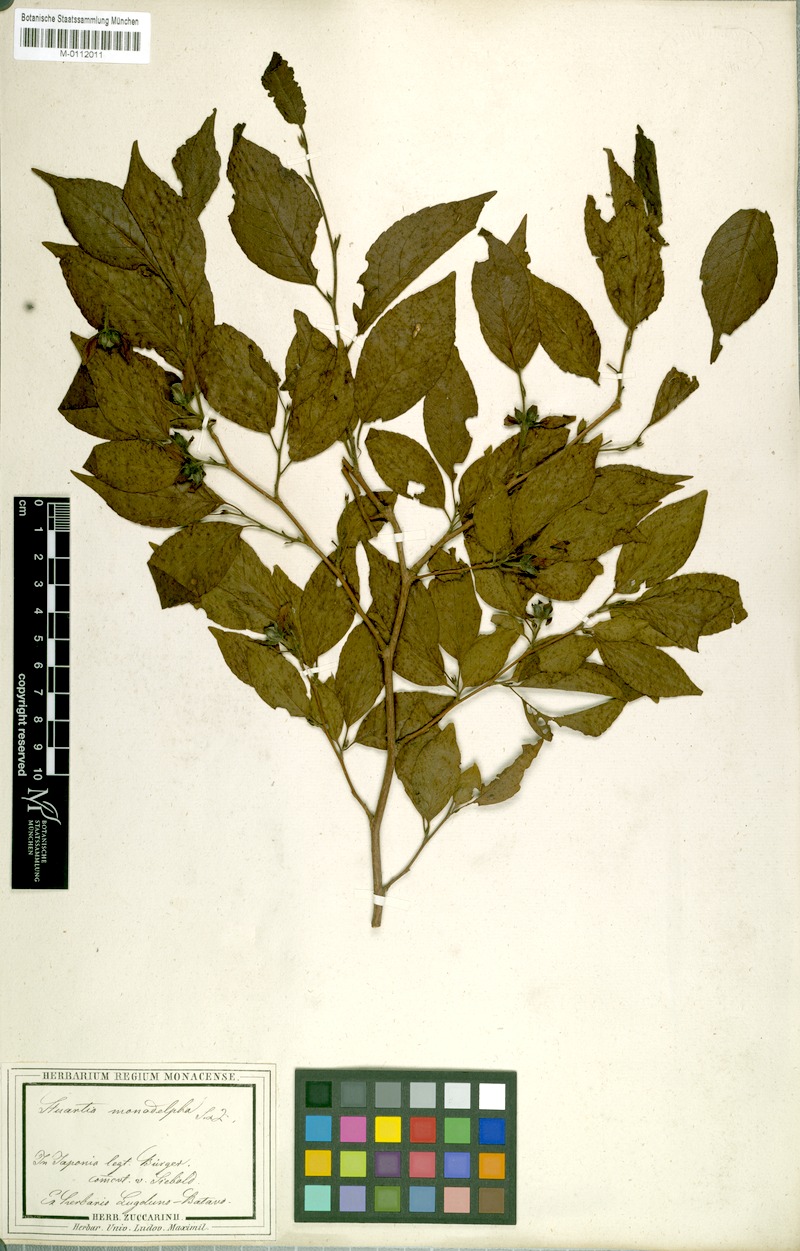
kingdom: Plantae
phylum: Tracheophyta
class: Magnoliopsida
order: Ericales
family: Theaceae
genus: Stewartia
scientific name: Stewartia monadelpha
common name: Tall stewartia
